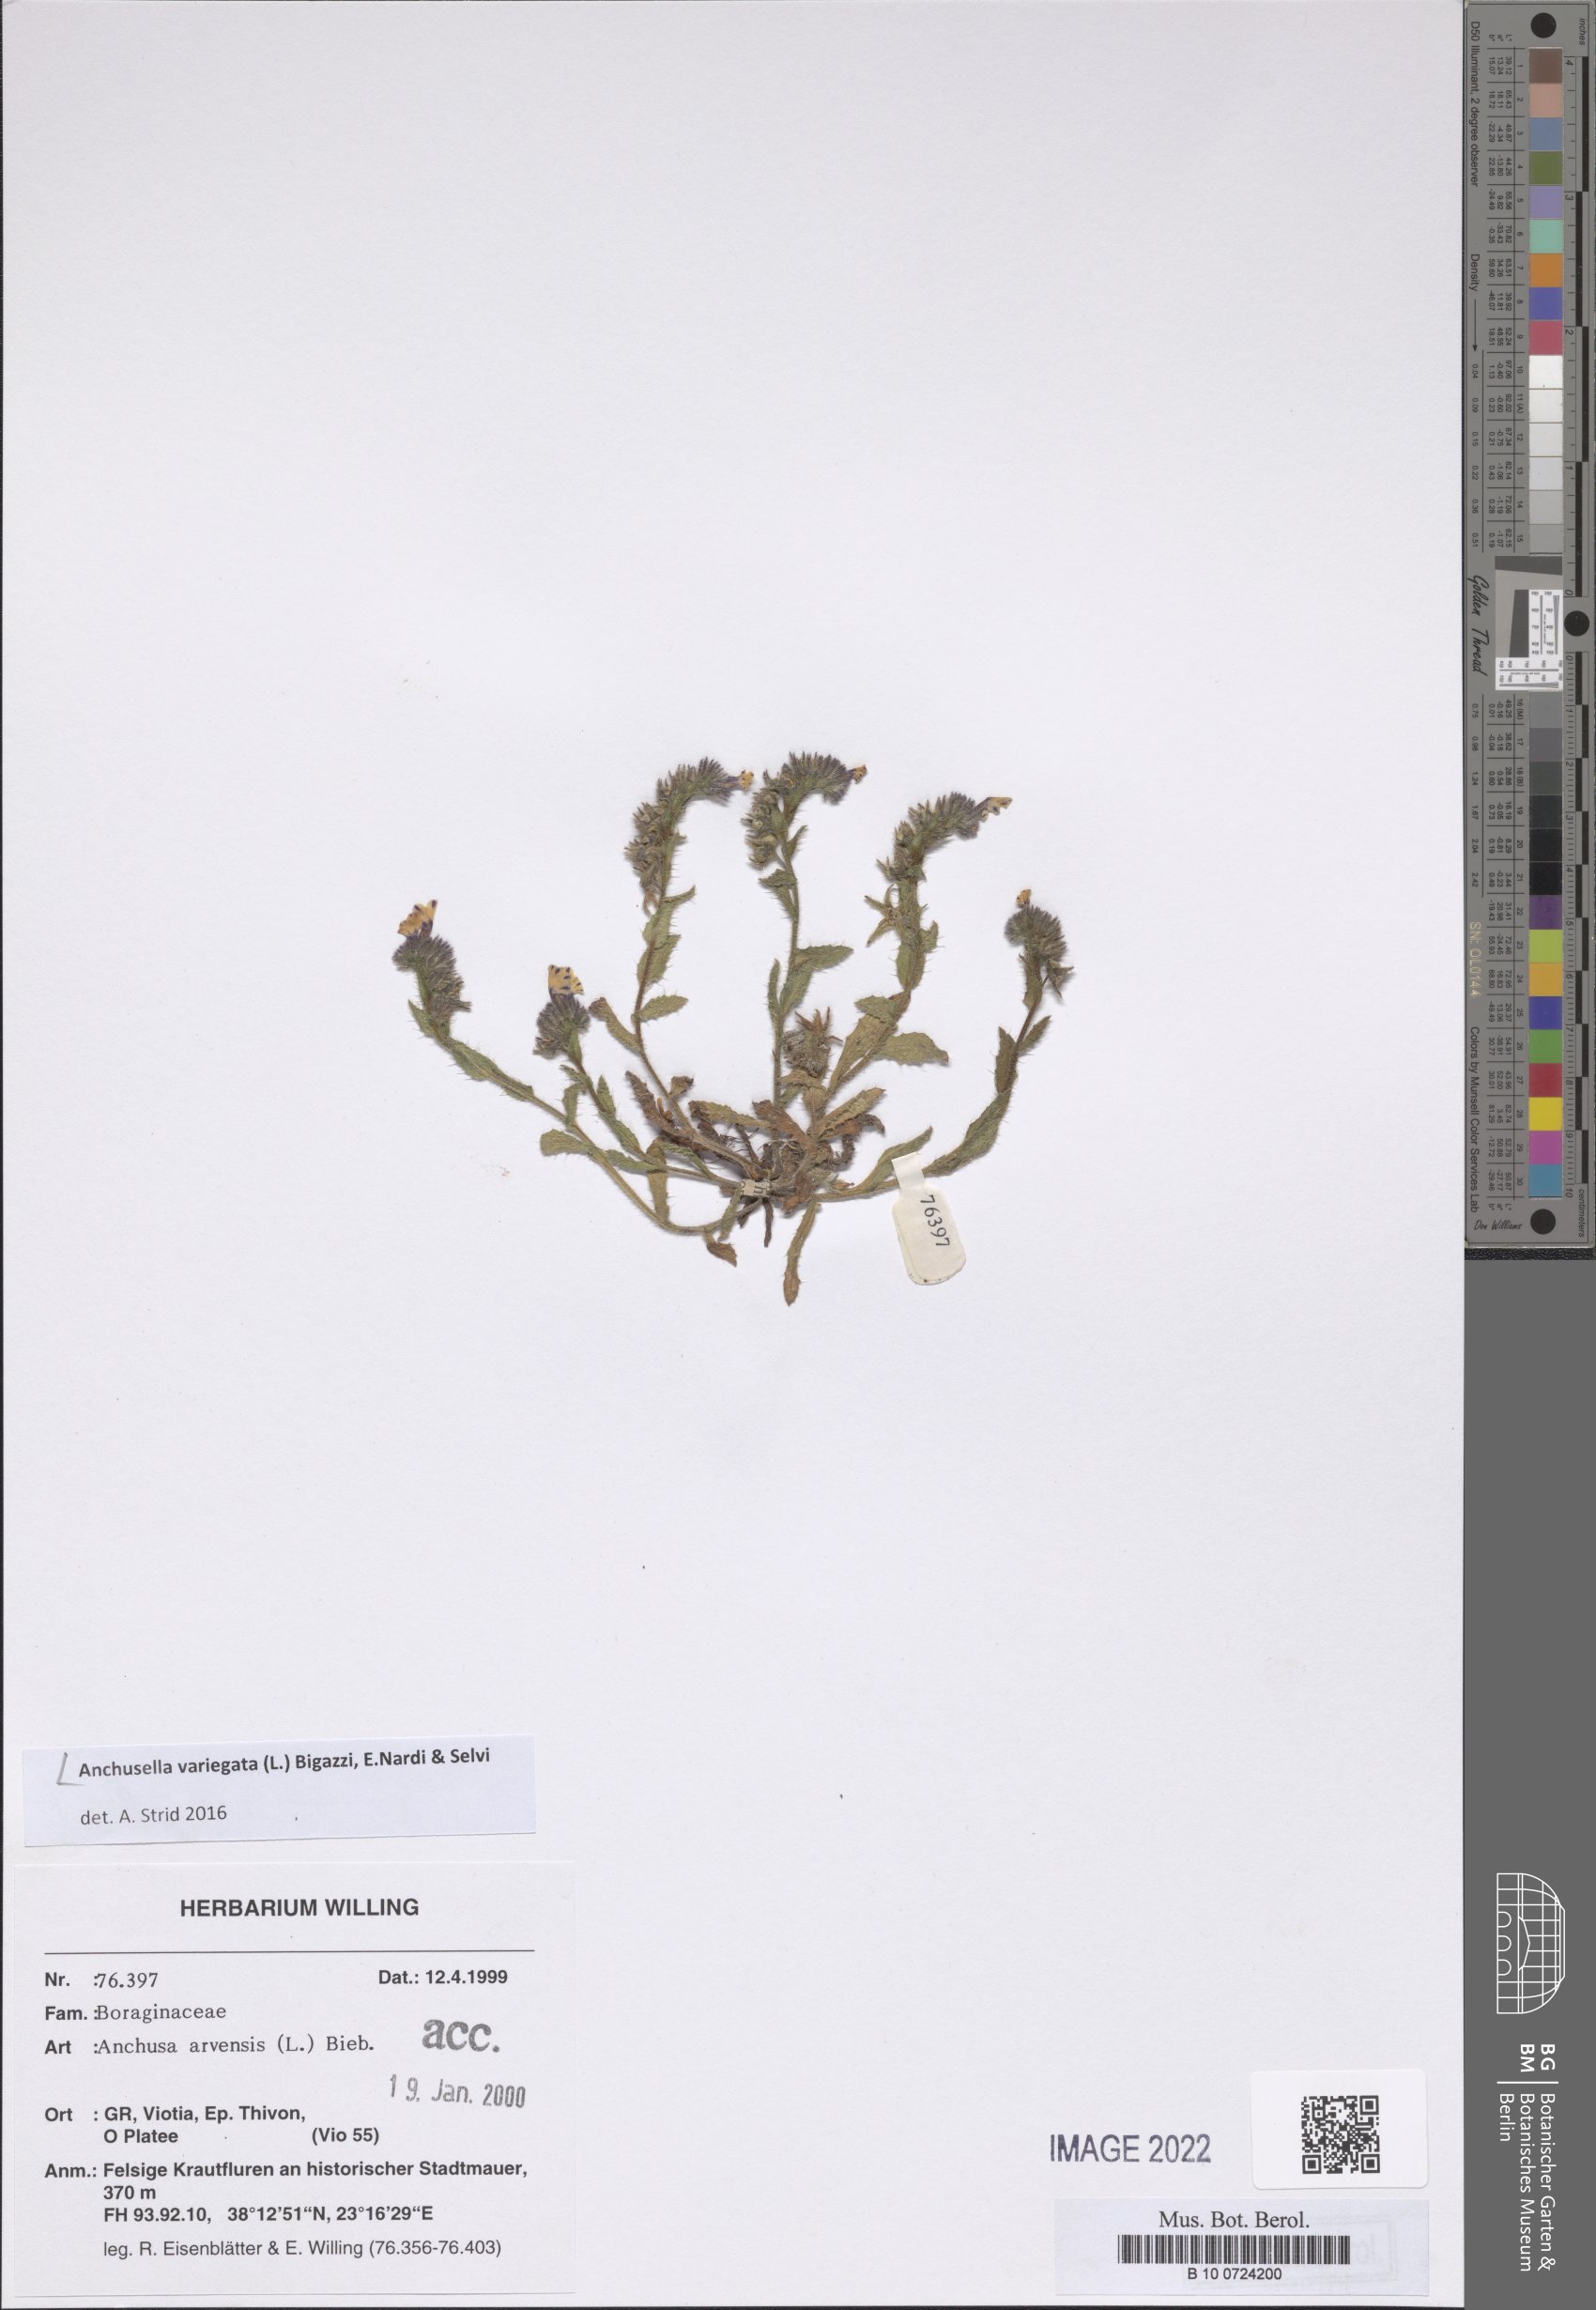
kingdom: Plantae
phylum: Tracheophyta
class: Magnoliopsida
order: Boraginales
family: Boraginaceae
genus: Anchusella
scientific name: Anchusella variegata
